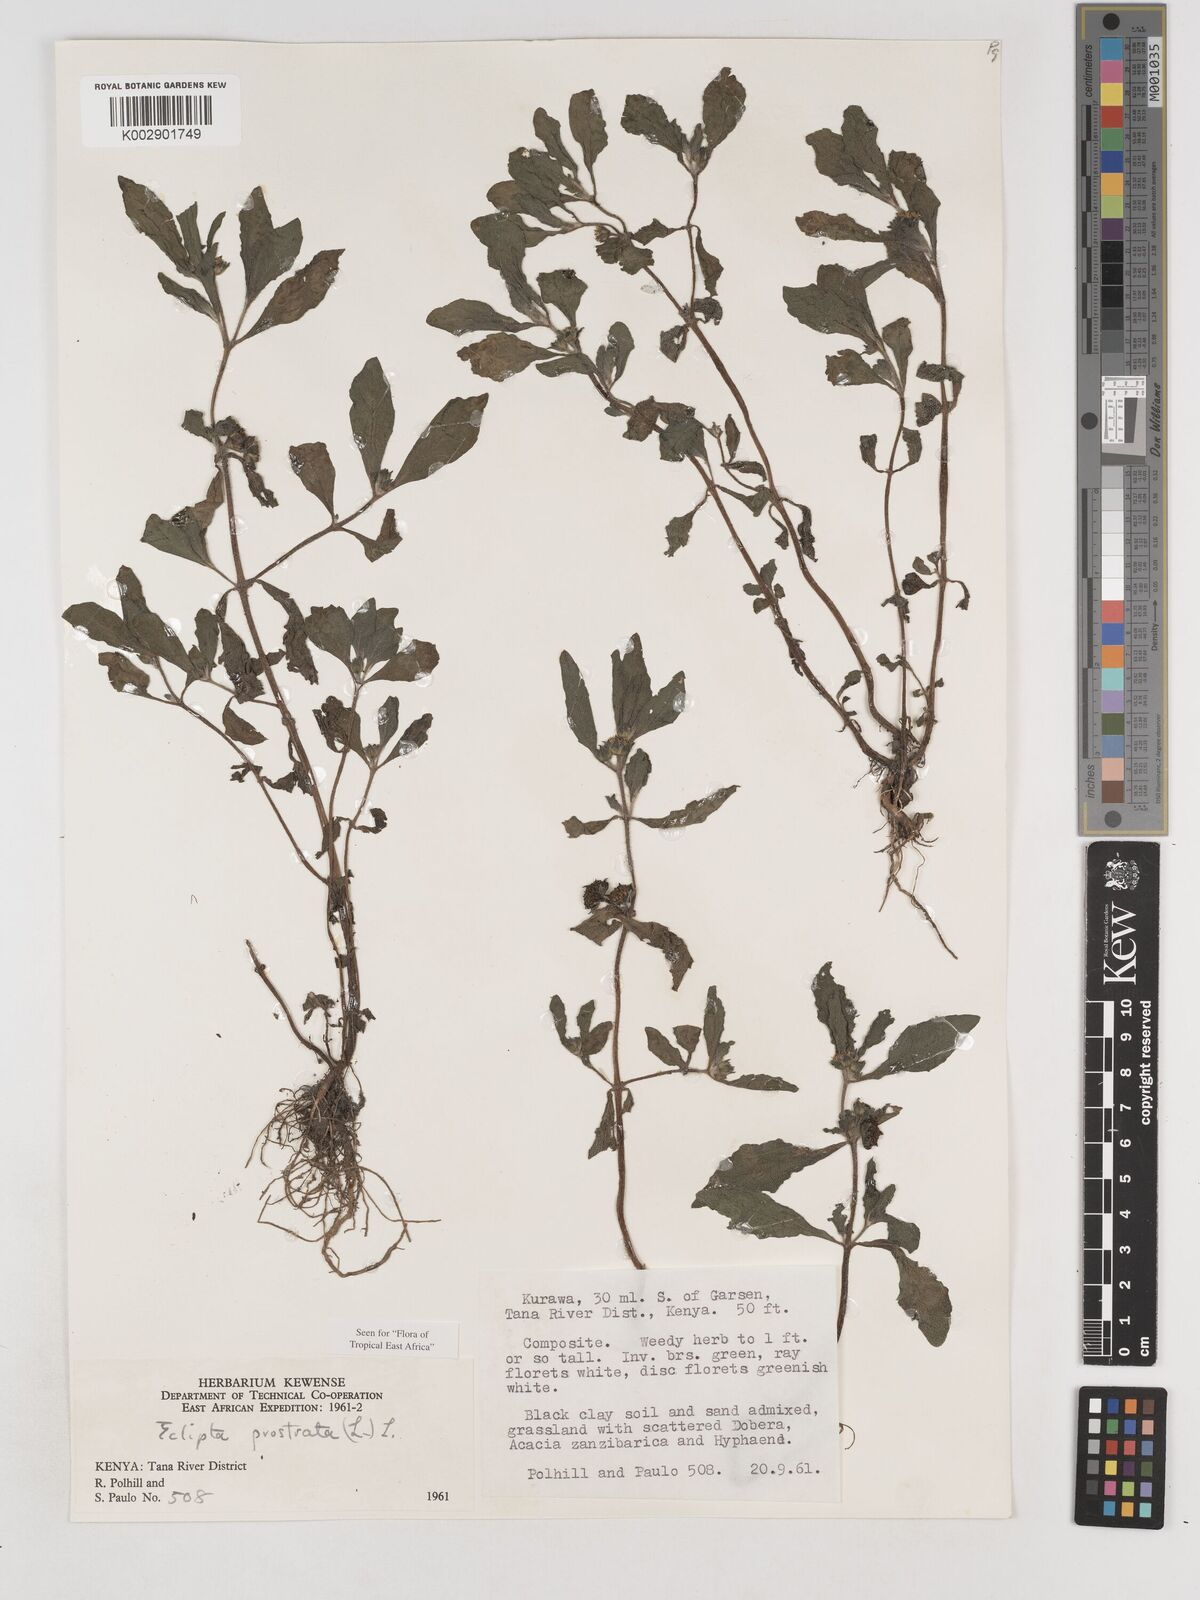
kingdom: Plantae
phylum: Tracheophyta
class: Magnoliopsida
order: Asterales
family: Asteraceae
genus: Eclipta
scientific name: Eclipta prostrata
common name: False daisy
